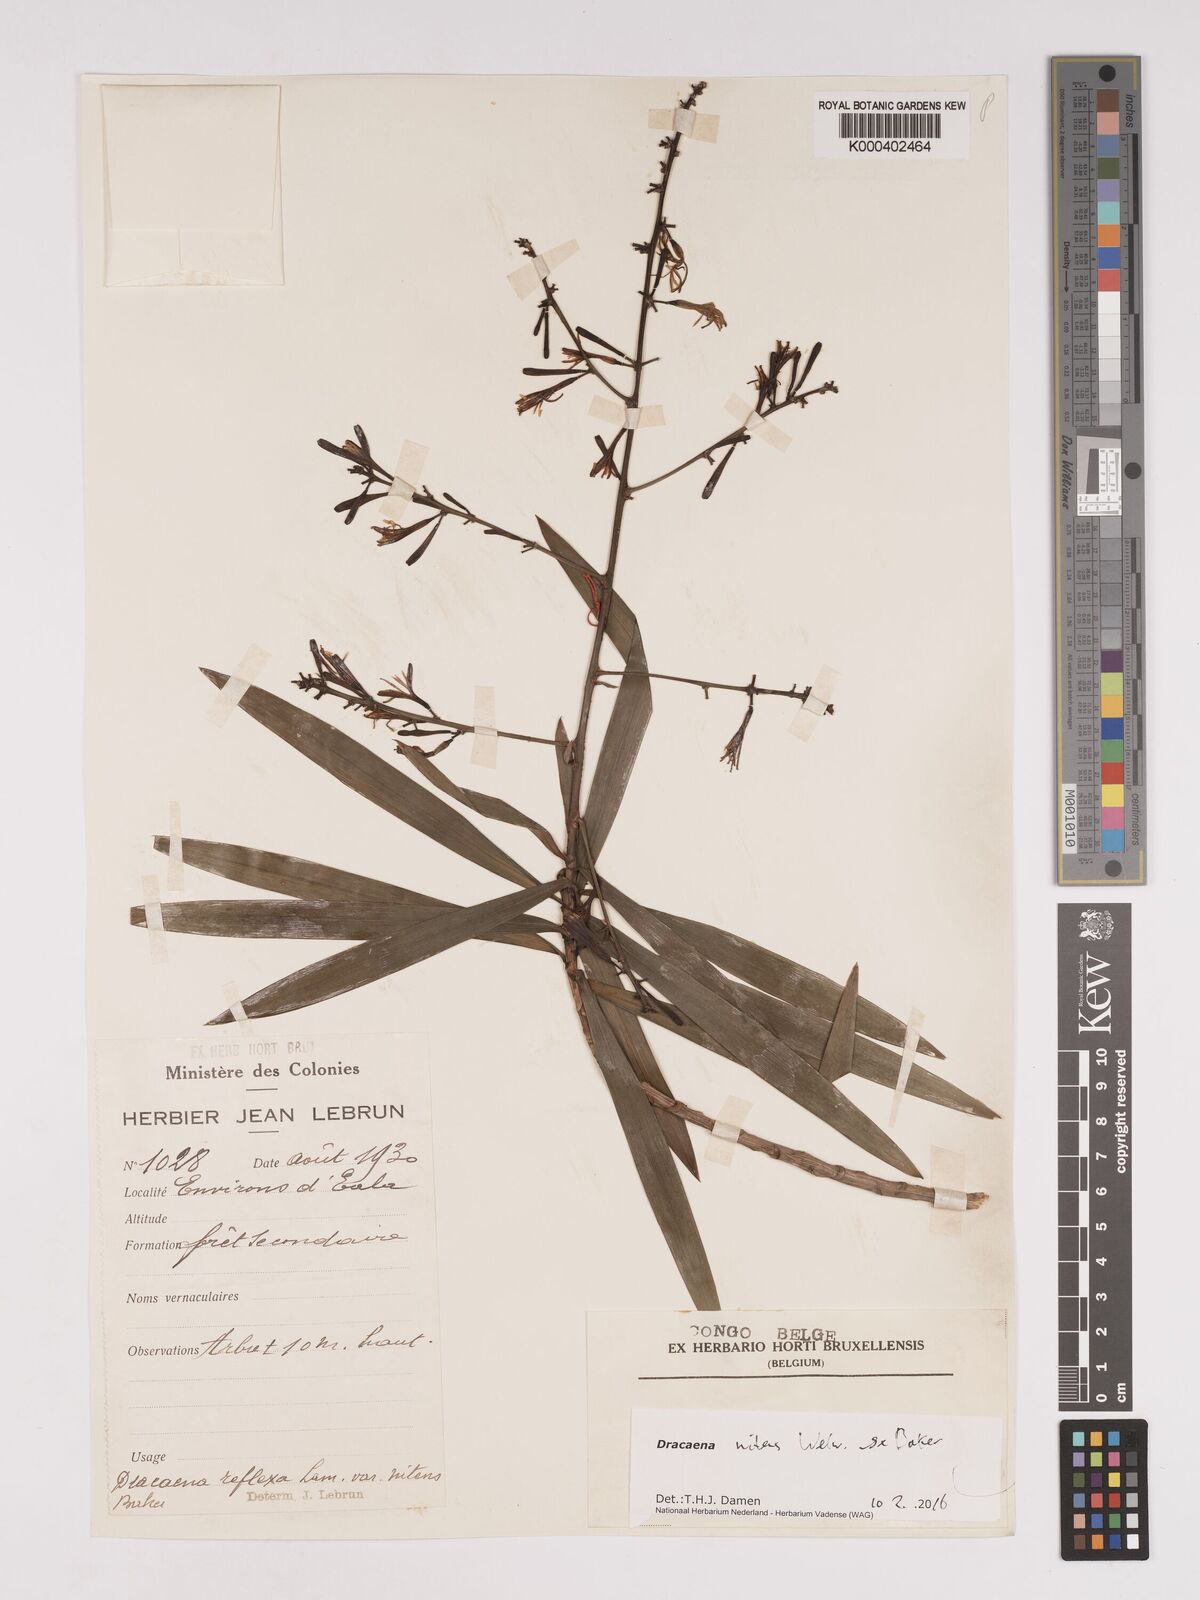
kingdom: Plantae
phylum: Tracheophyta
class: Liliopsida
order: Asparagales
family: Asparagaceae
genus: Dracaena
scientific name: Dracaena nitens
